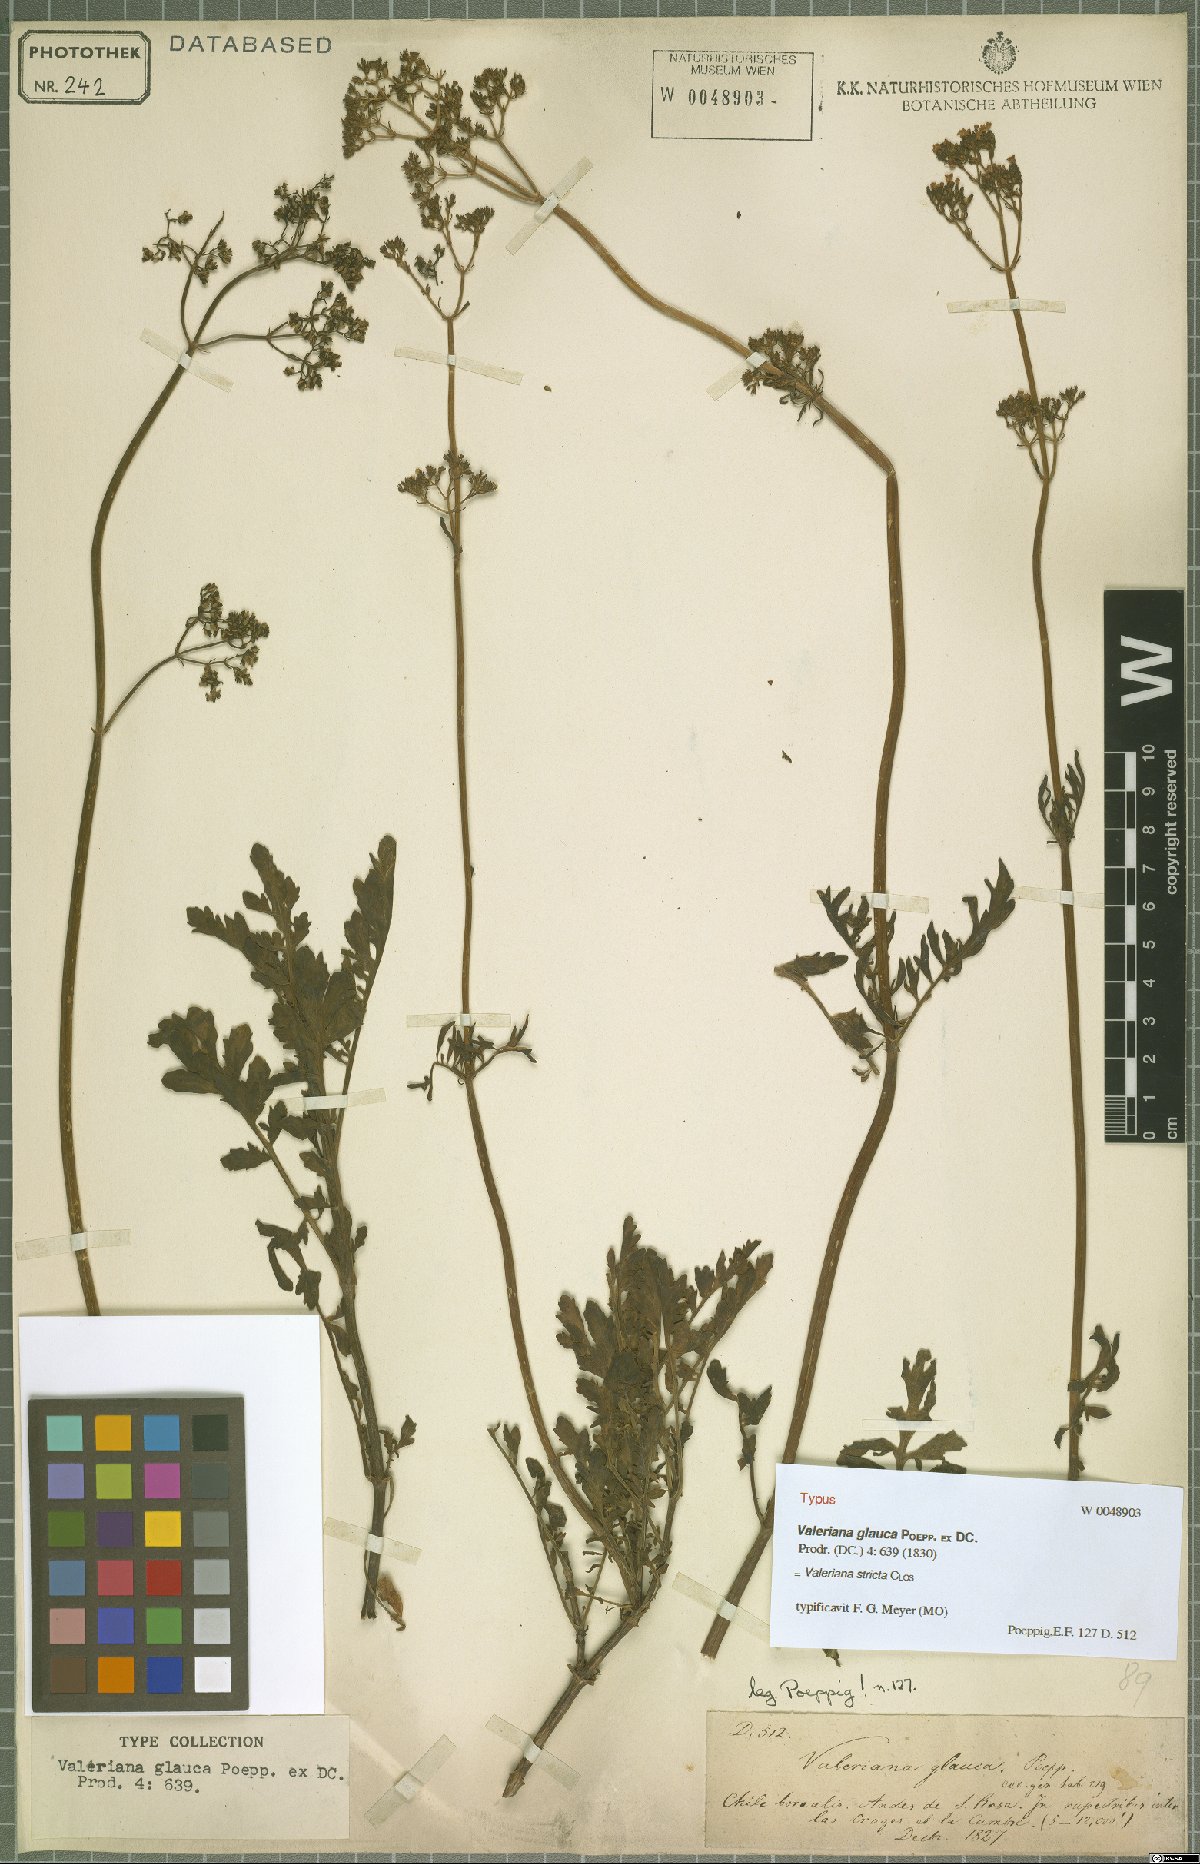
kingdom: Plantae
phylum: Tracheophyta
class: Magnoliopsida
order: Dipsacales
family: Caprifoliaceae
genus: Valeriana
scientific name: Valeriana stricta
